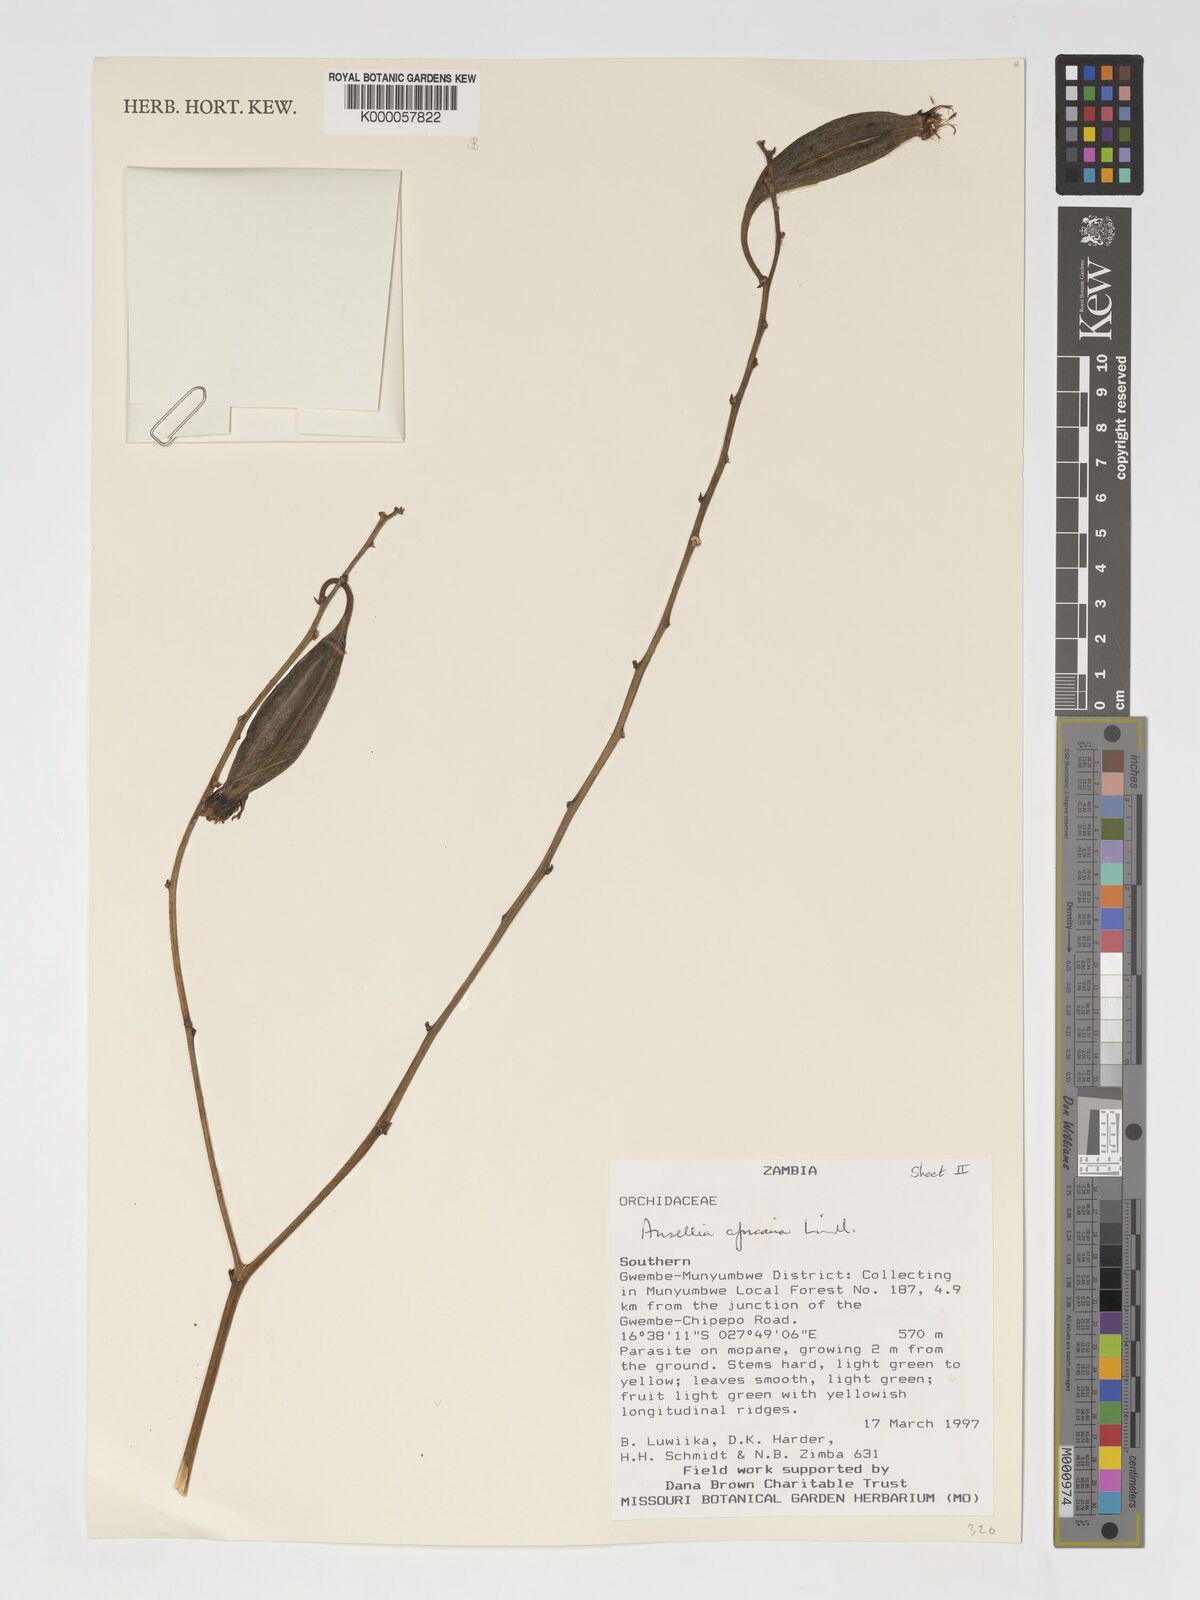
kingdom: Plantae
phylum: Tracheophyta
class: Liliopsida
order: Asparagales
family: Orchidaceae
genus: Ansellia
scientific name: Ansellia africana
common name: African ansellia
